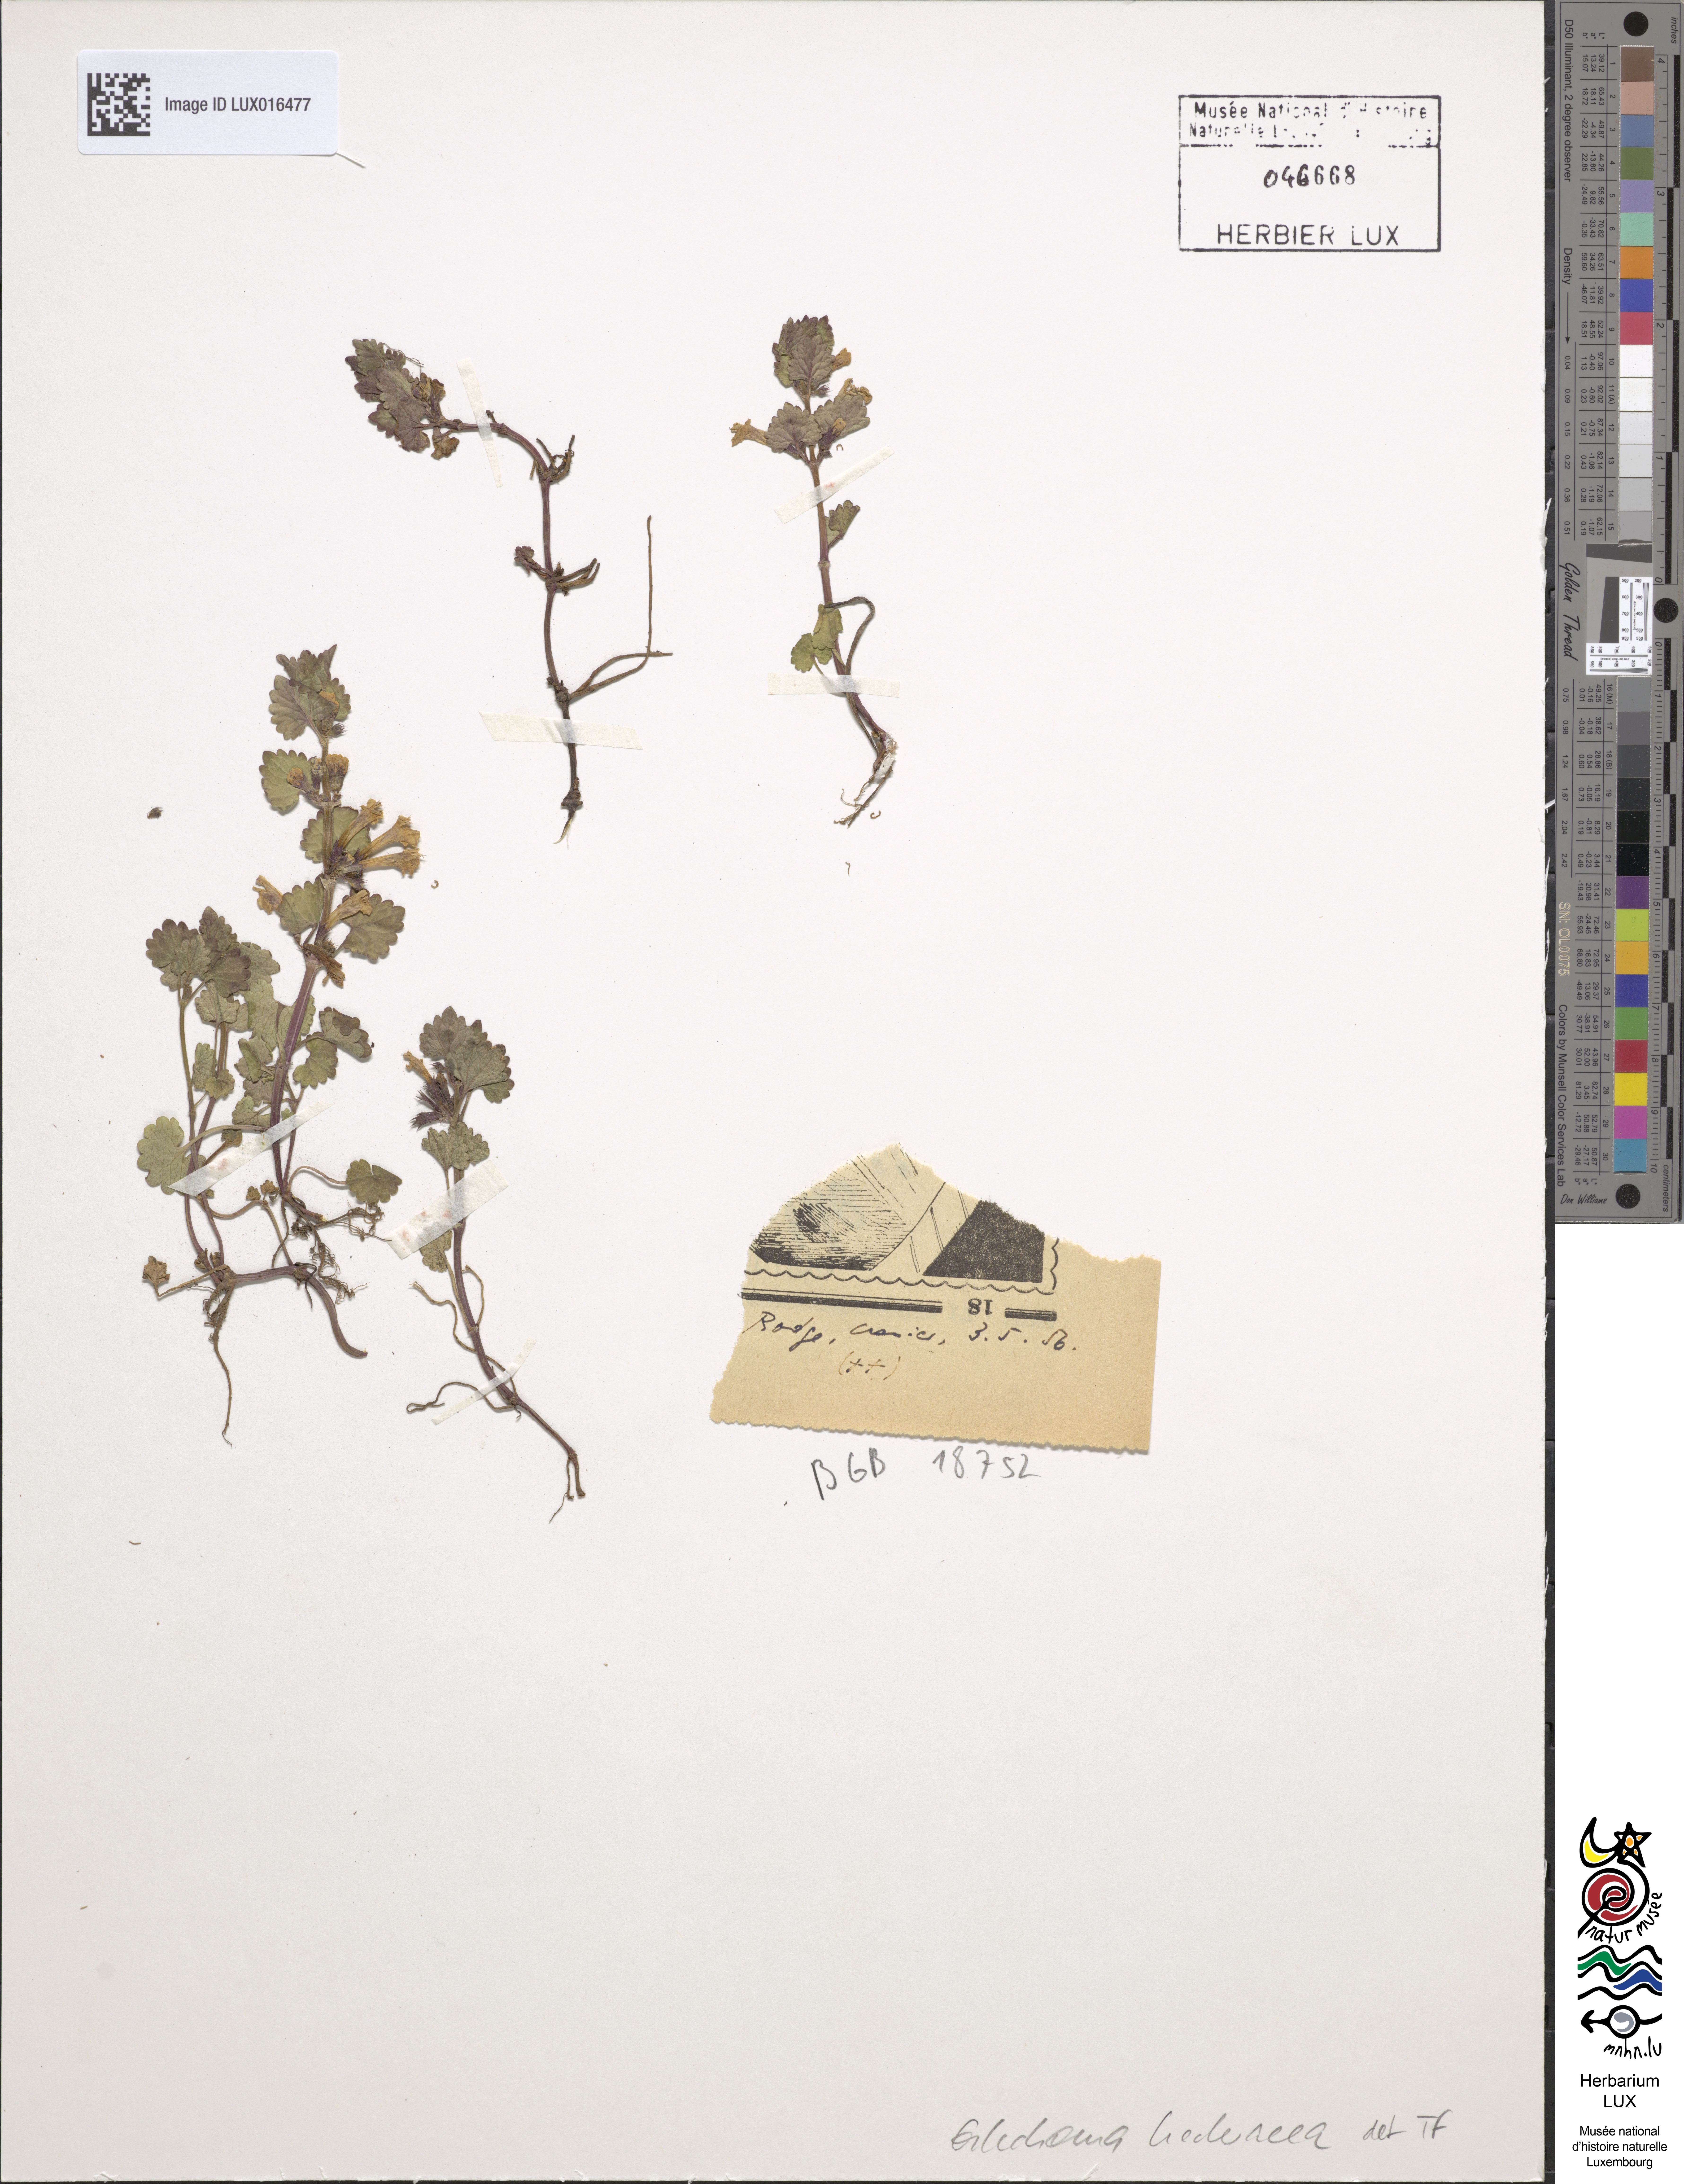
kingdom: Plantae
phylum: Tracheophyta
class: Magnoliopsida
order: Lamiales
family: Lamiaceae
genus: Glechoma
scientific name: Glechoma hederacea
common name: Ground ivy
